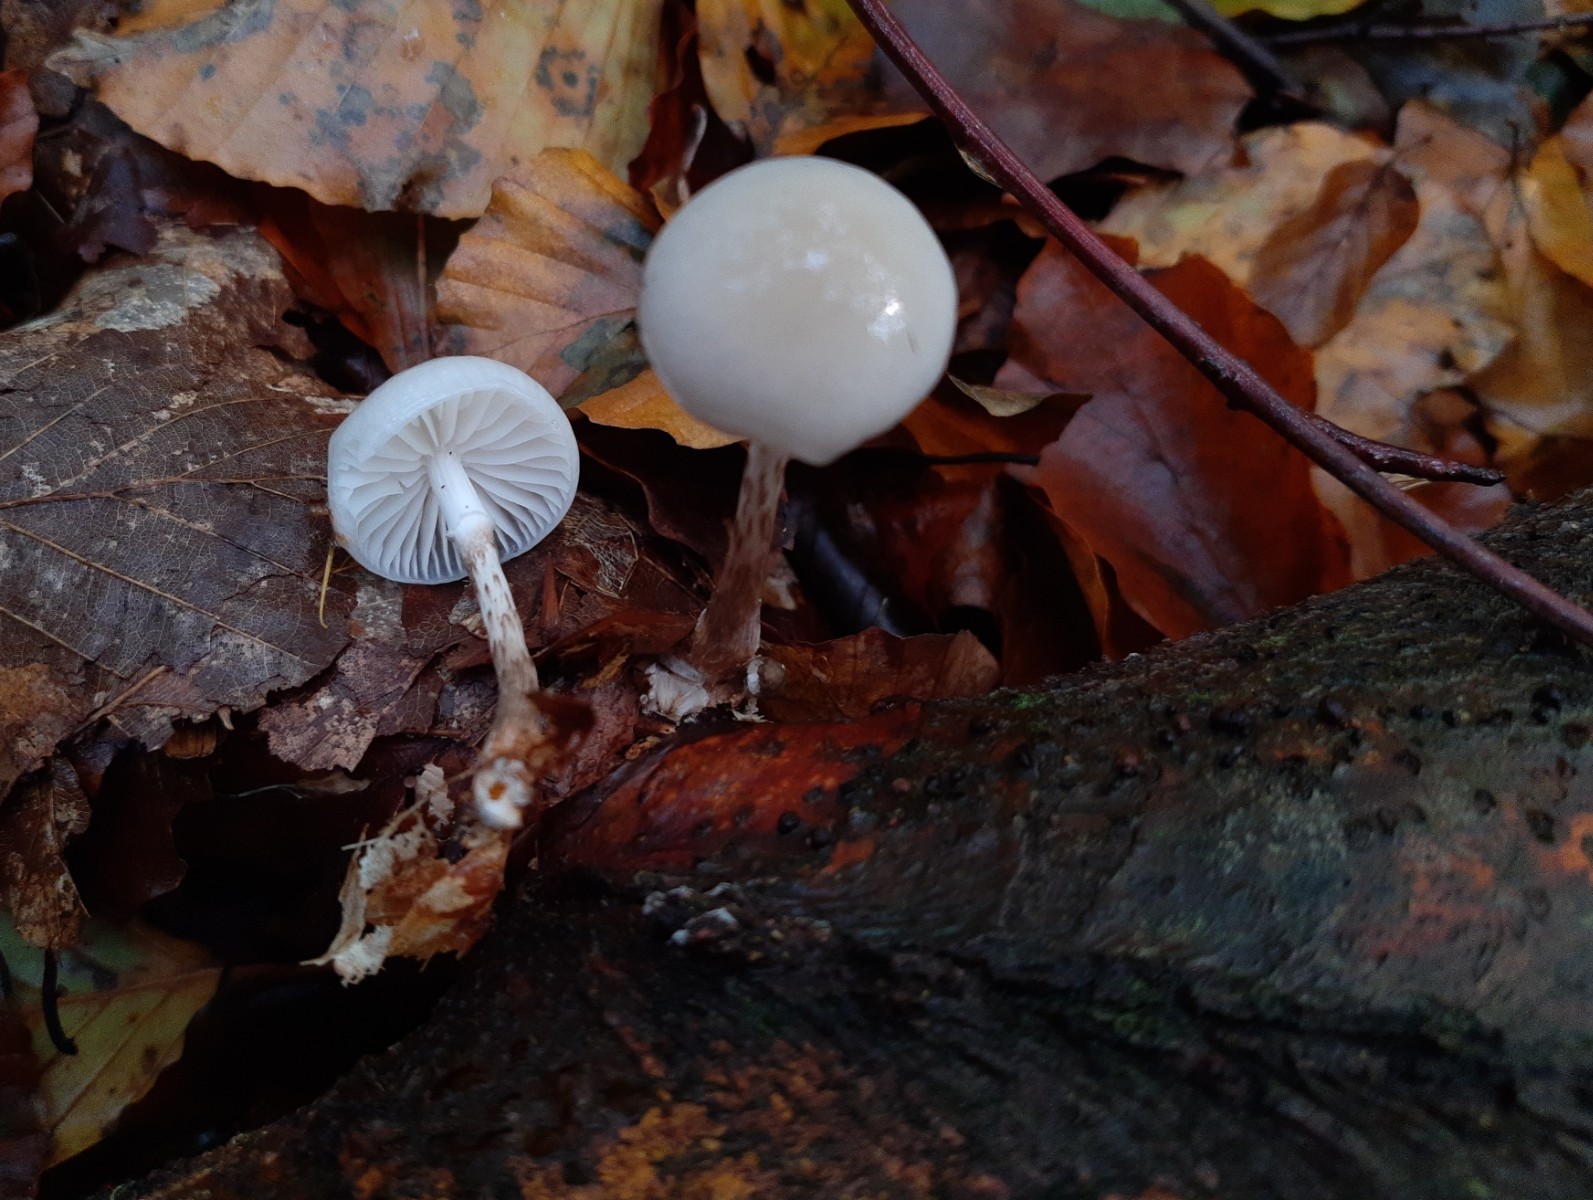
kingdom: Fungi
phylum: Basidiomycota
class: Agaricomycetes
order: Agaricales
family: Physalacriaceae
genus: Mucidula
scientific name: Mucidula mucida
